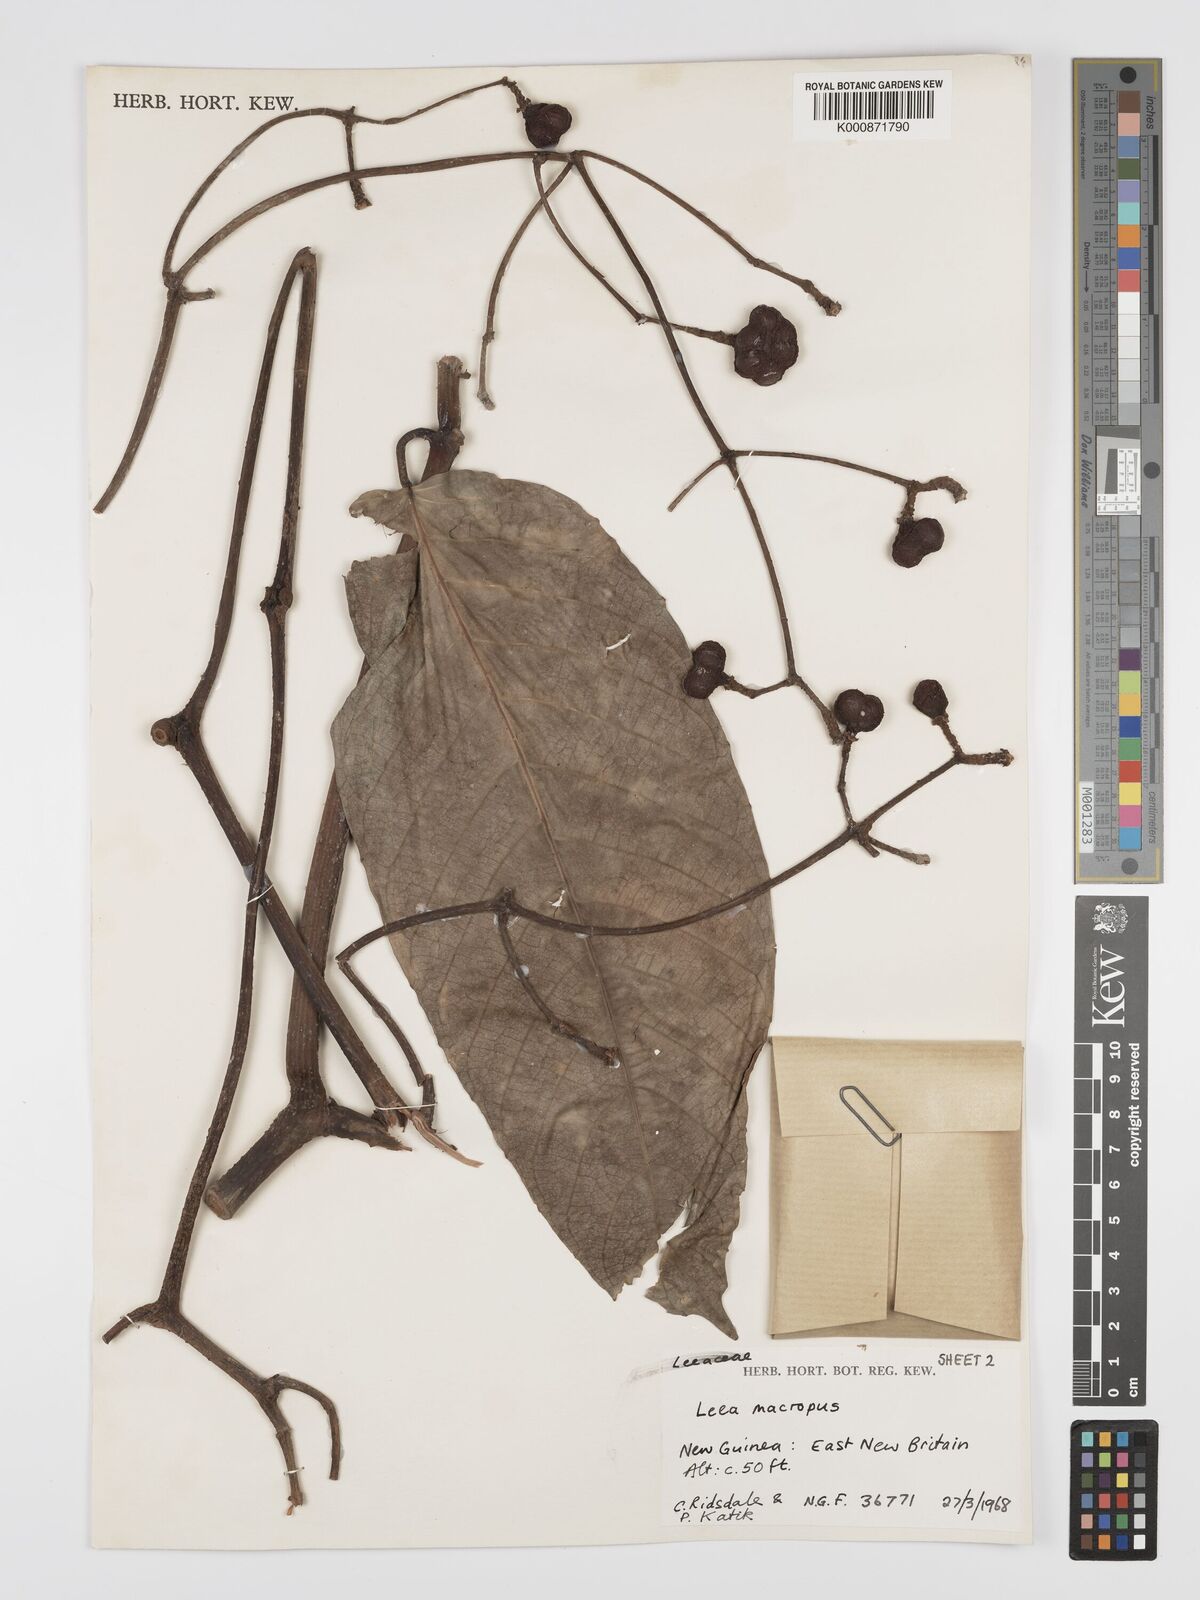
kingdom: Plantae
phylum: Tracheophyta
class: Magnoliopsida
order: Vitales
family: Vitaceae
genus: Leea
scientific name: Leea macropus
